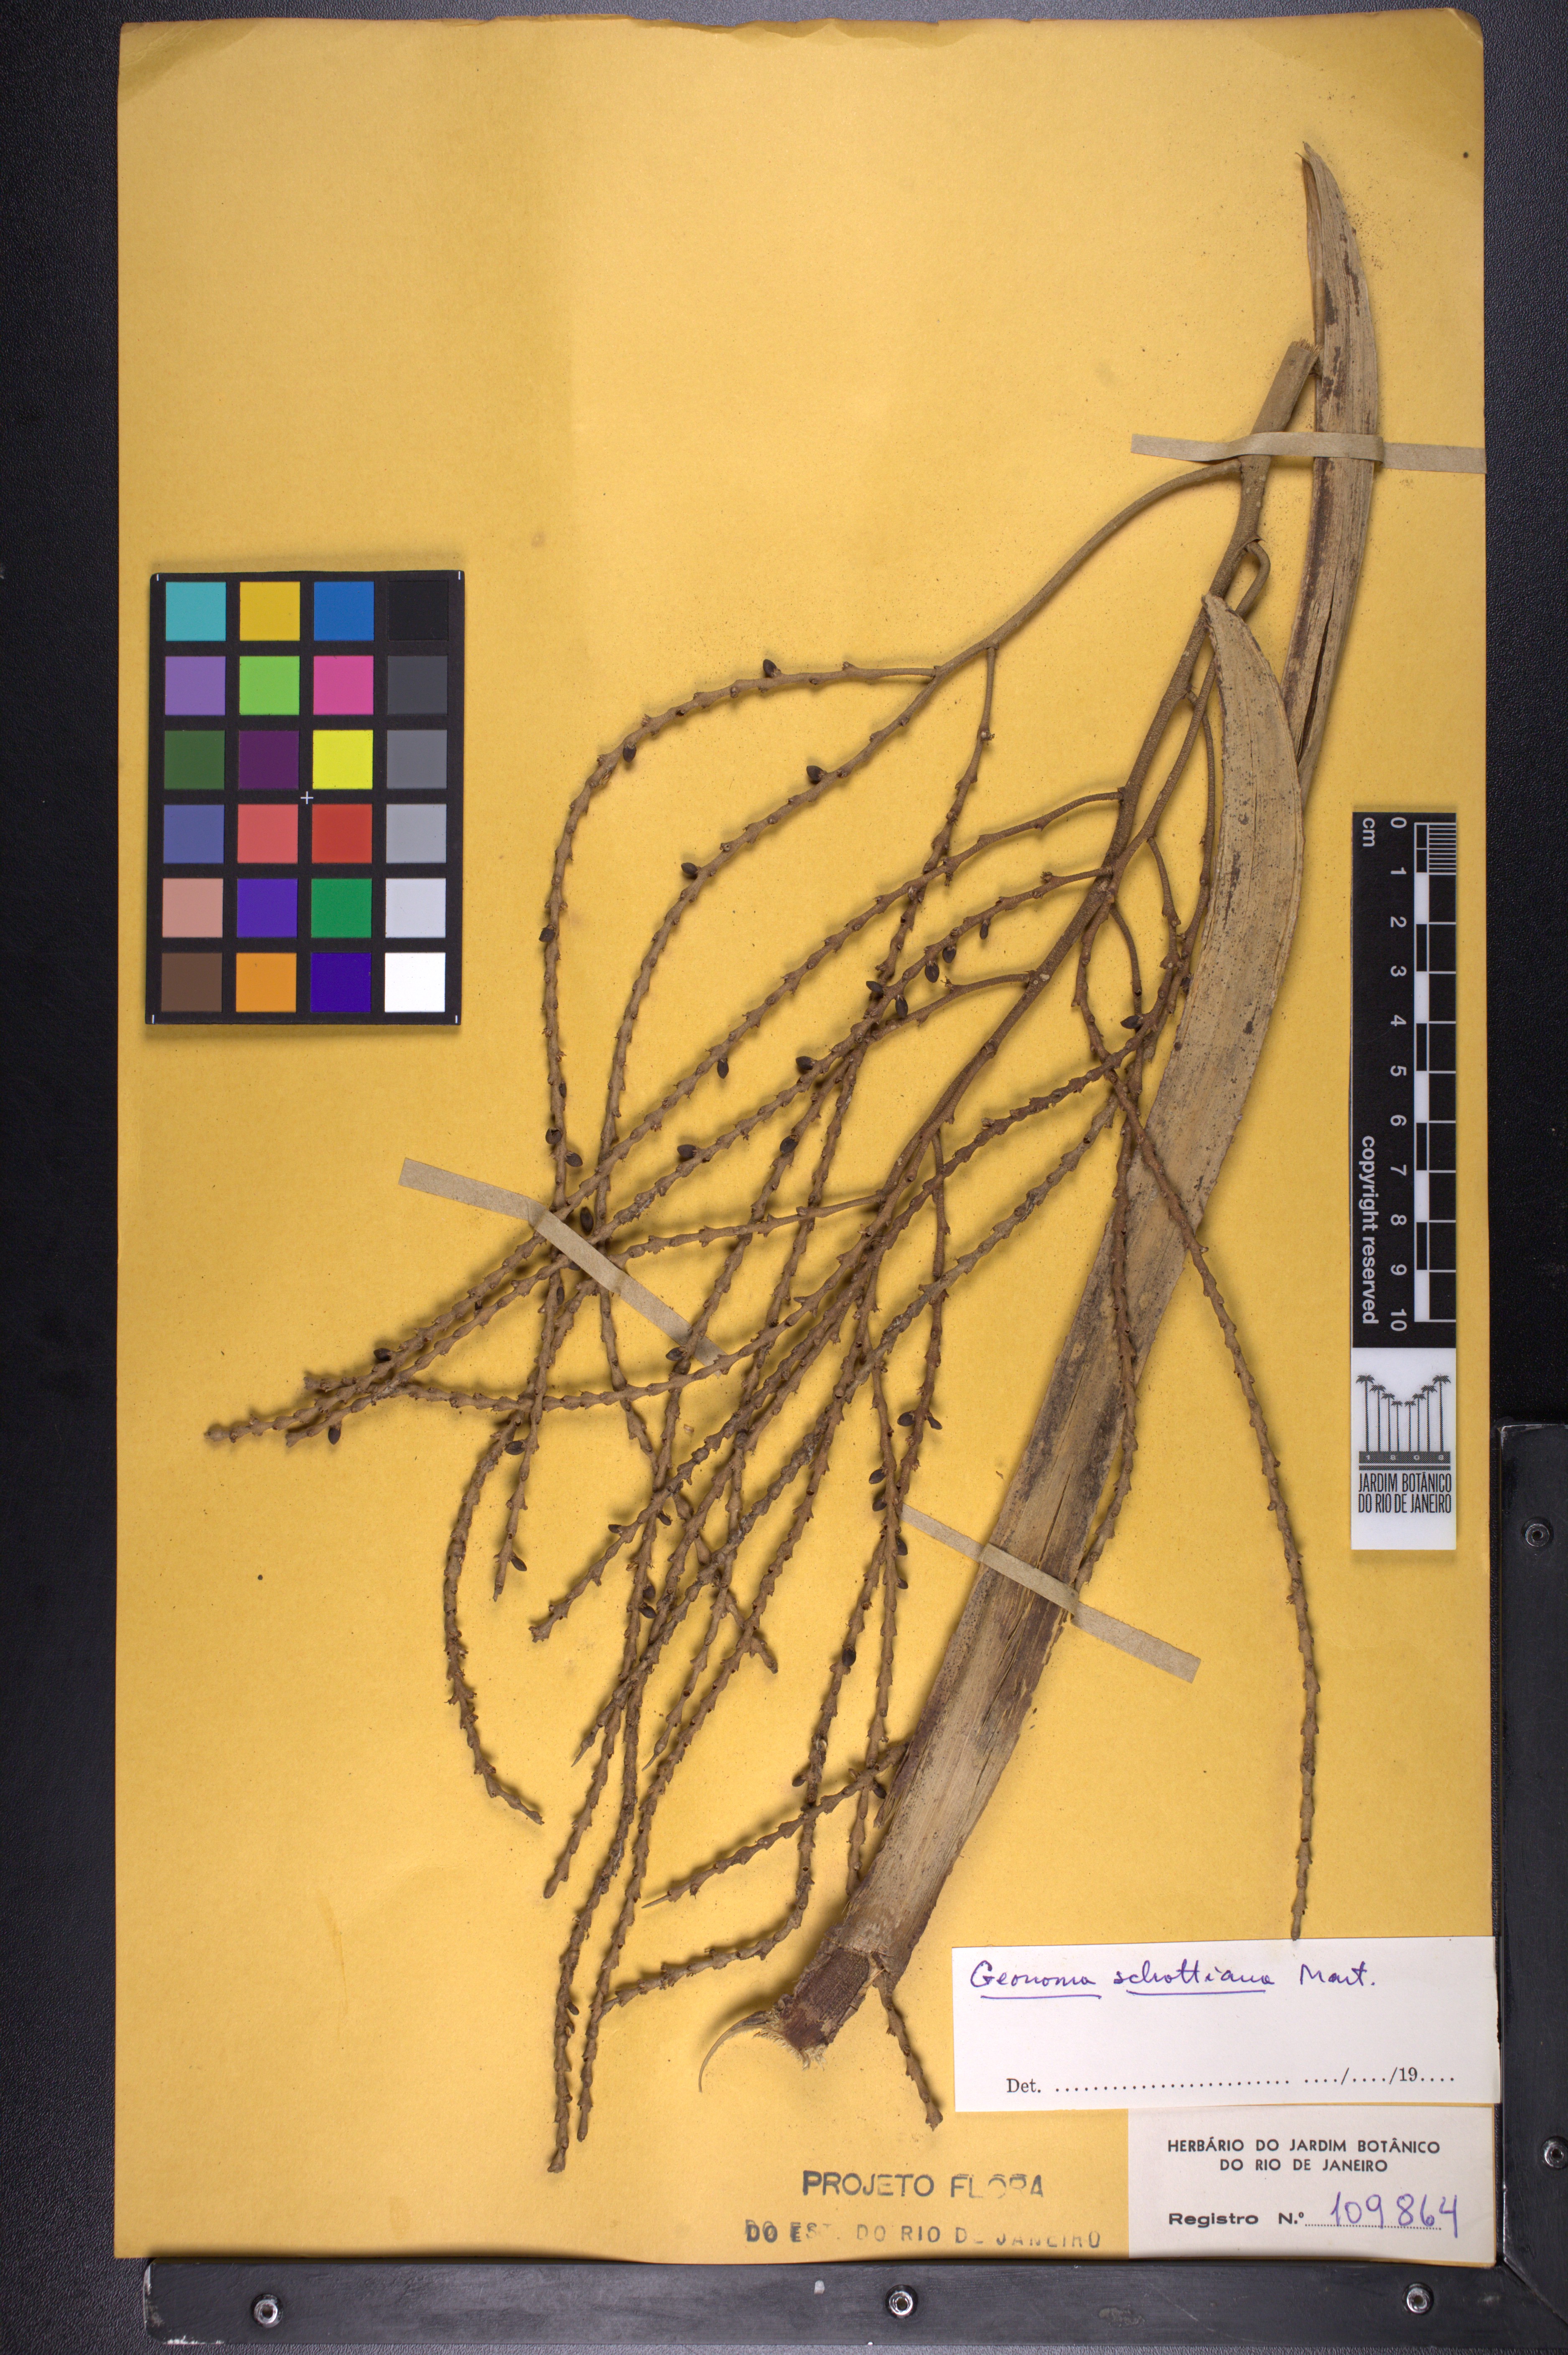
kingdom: Plantae
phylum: Tracheophyta
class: Liliopsida
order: Arecales
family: Arecaceae
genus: Geonoma
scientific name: Geonoma schottiana
